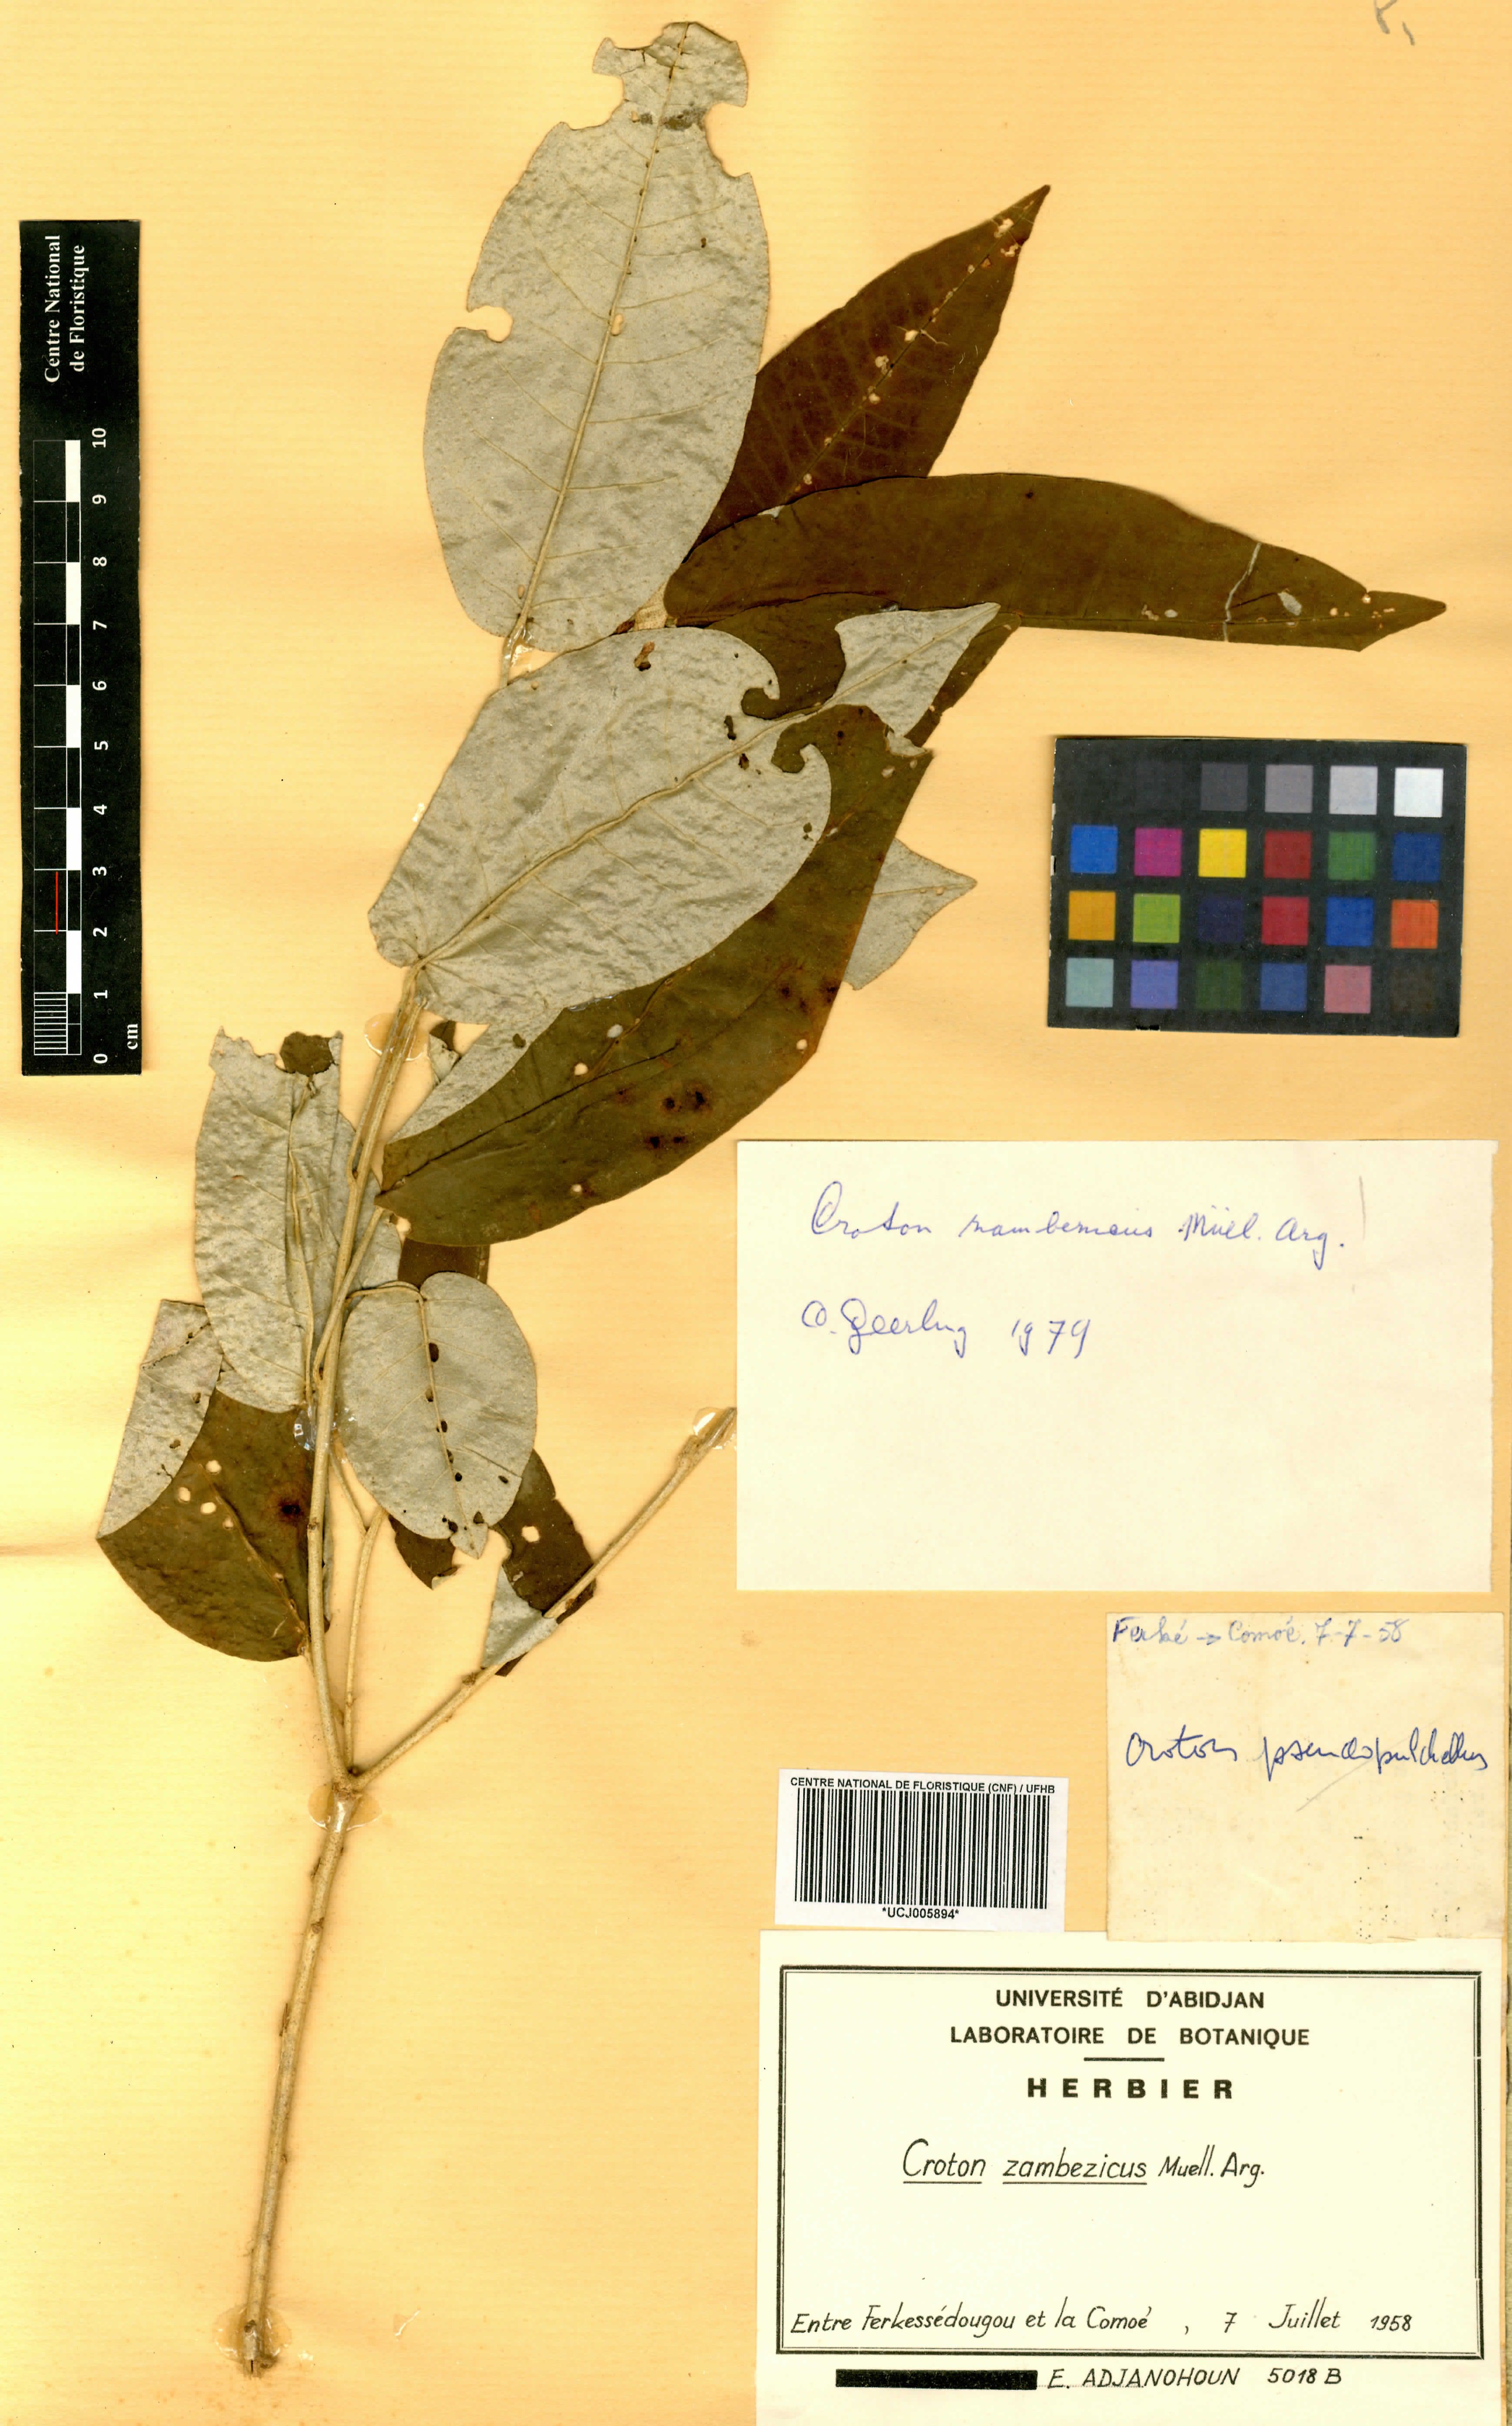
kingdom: Plantae
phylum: Tracheophyta
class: Magnoliopsida
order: Malpighiales
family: Euphorbiaceae
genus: Croton
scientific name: Croton gratissimus
